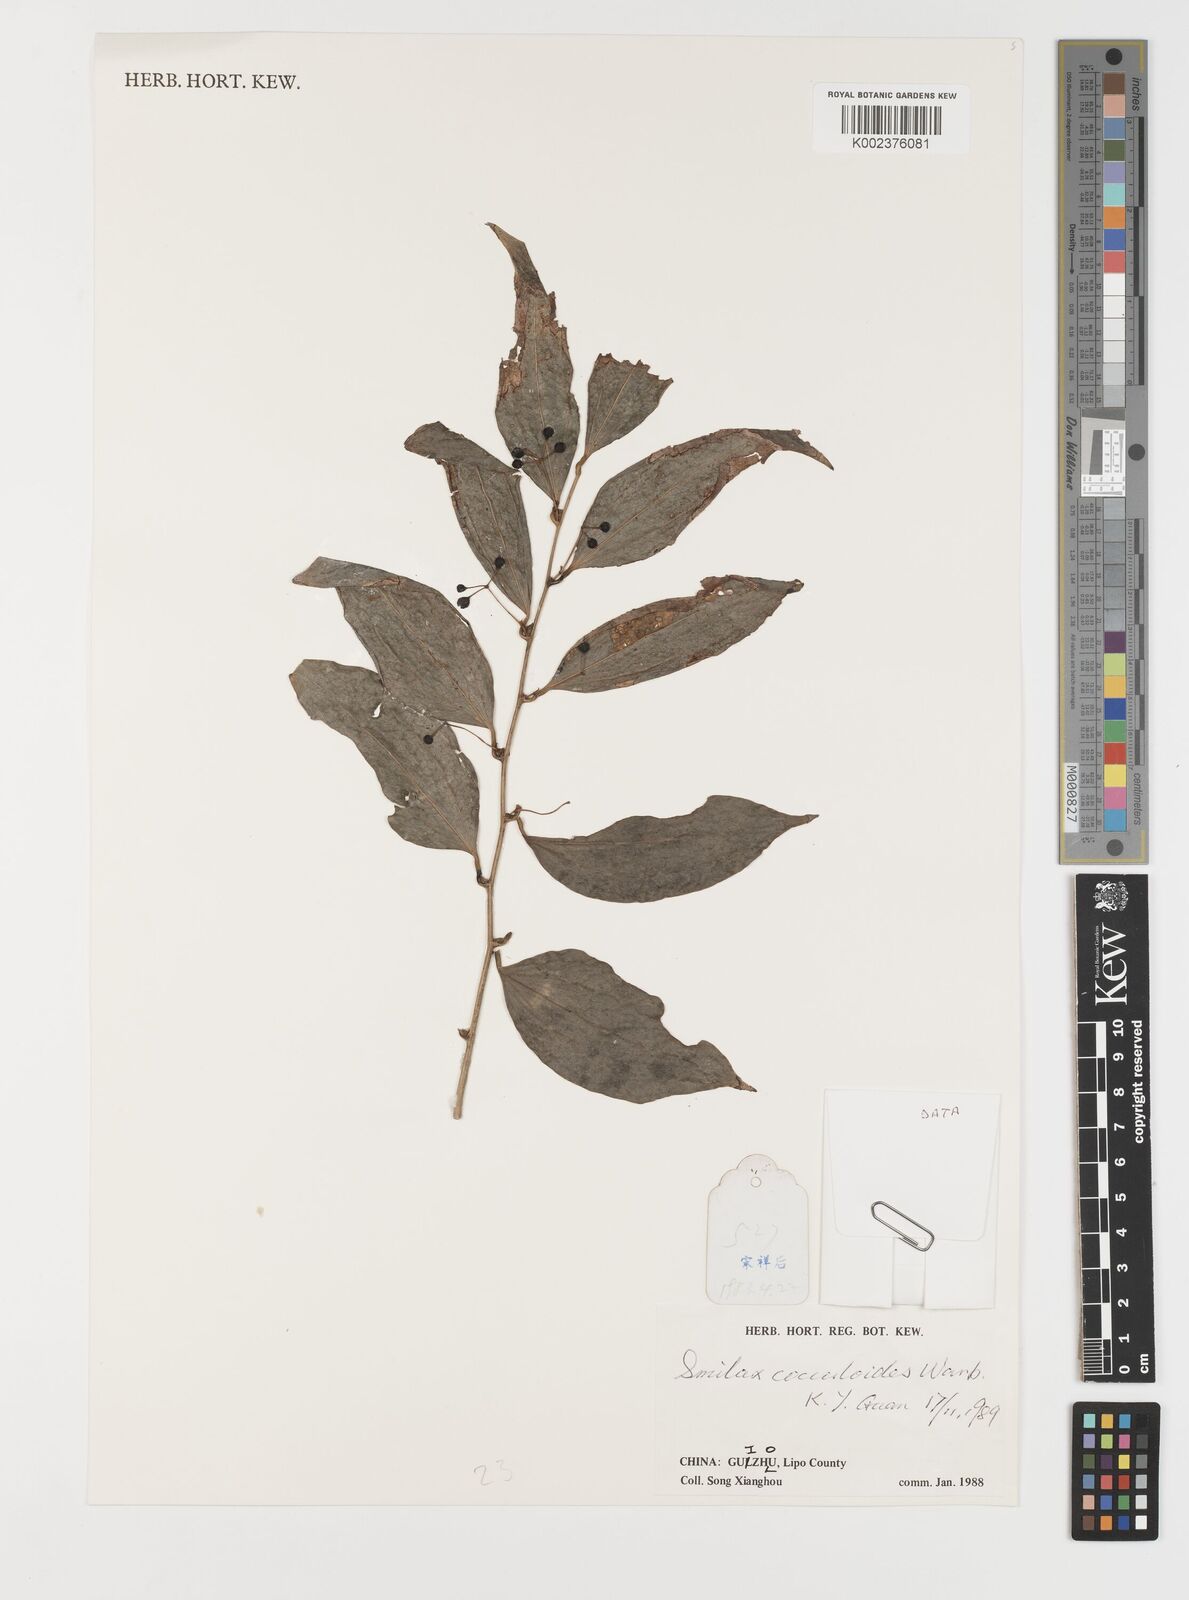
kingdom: Plantae
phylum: Tracheophyta
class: Liliopsida
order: Liliales
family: Smilacaceae
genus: Smilax
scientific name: Smilax cocculoides
